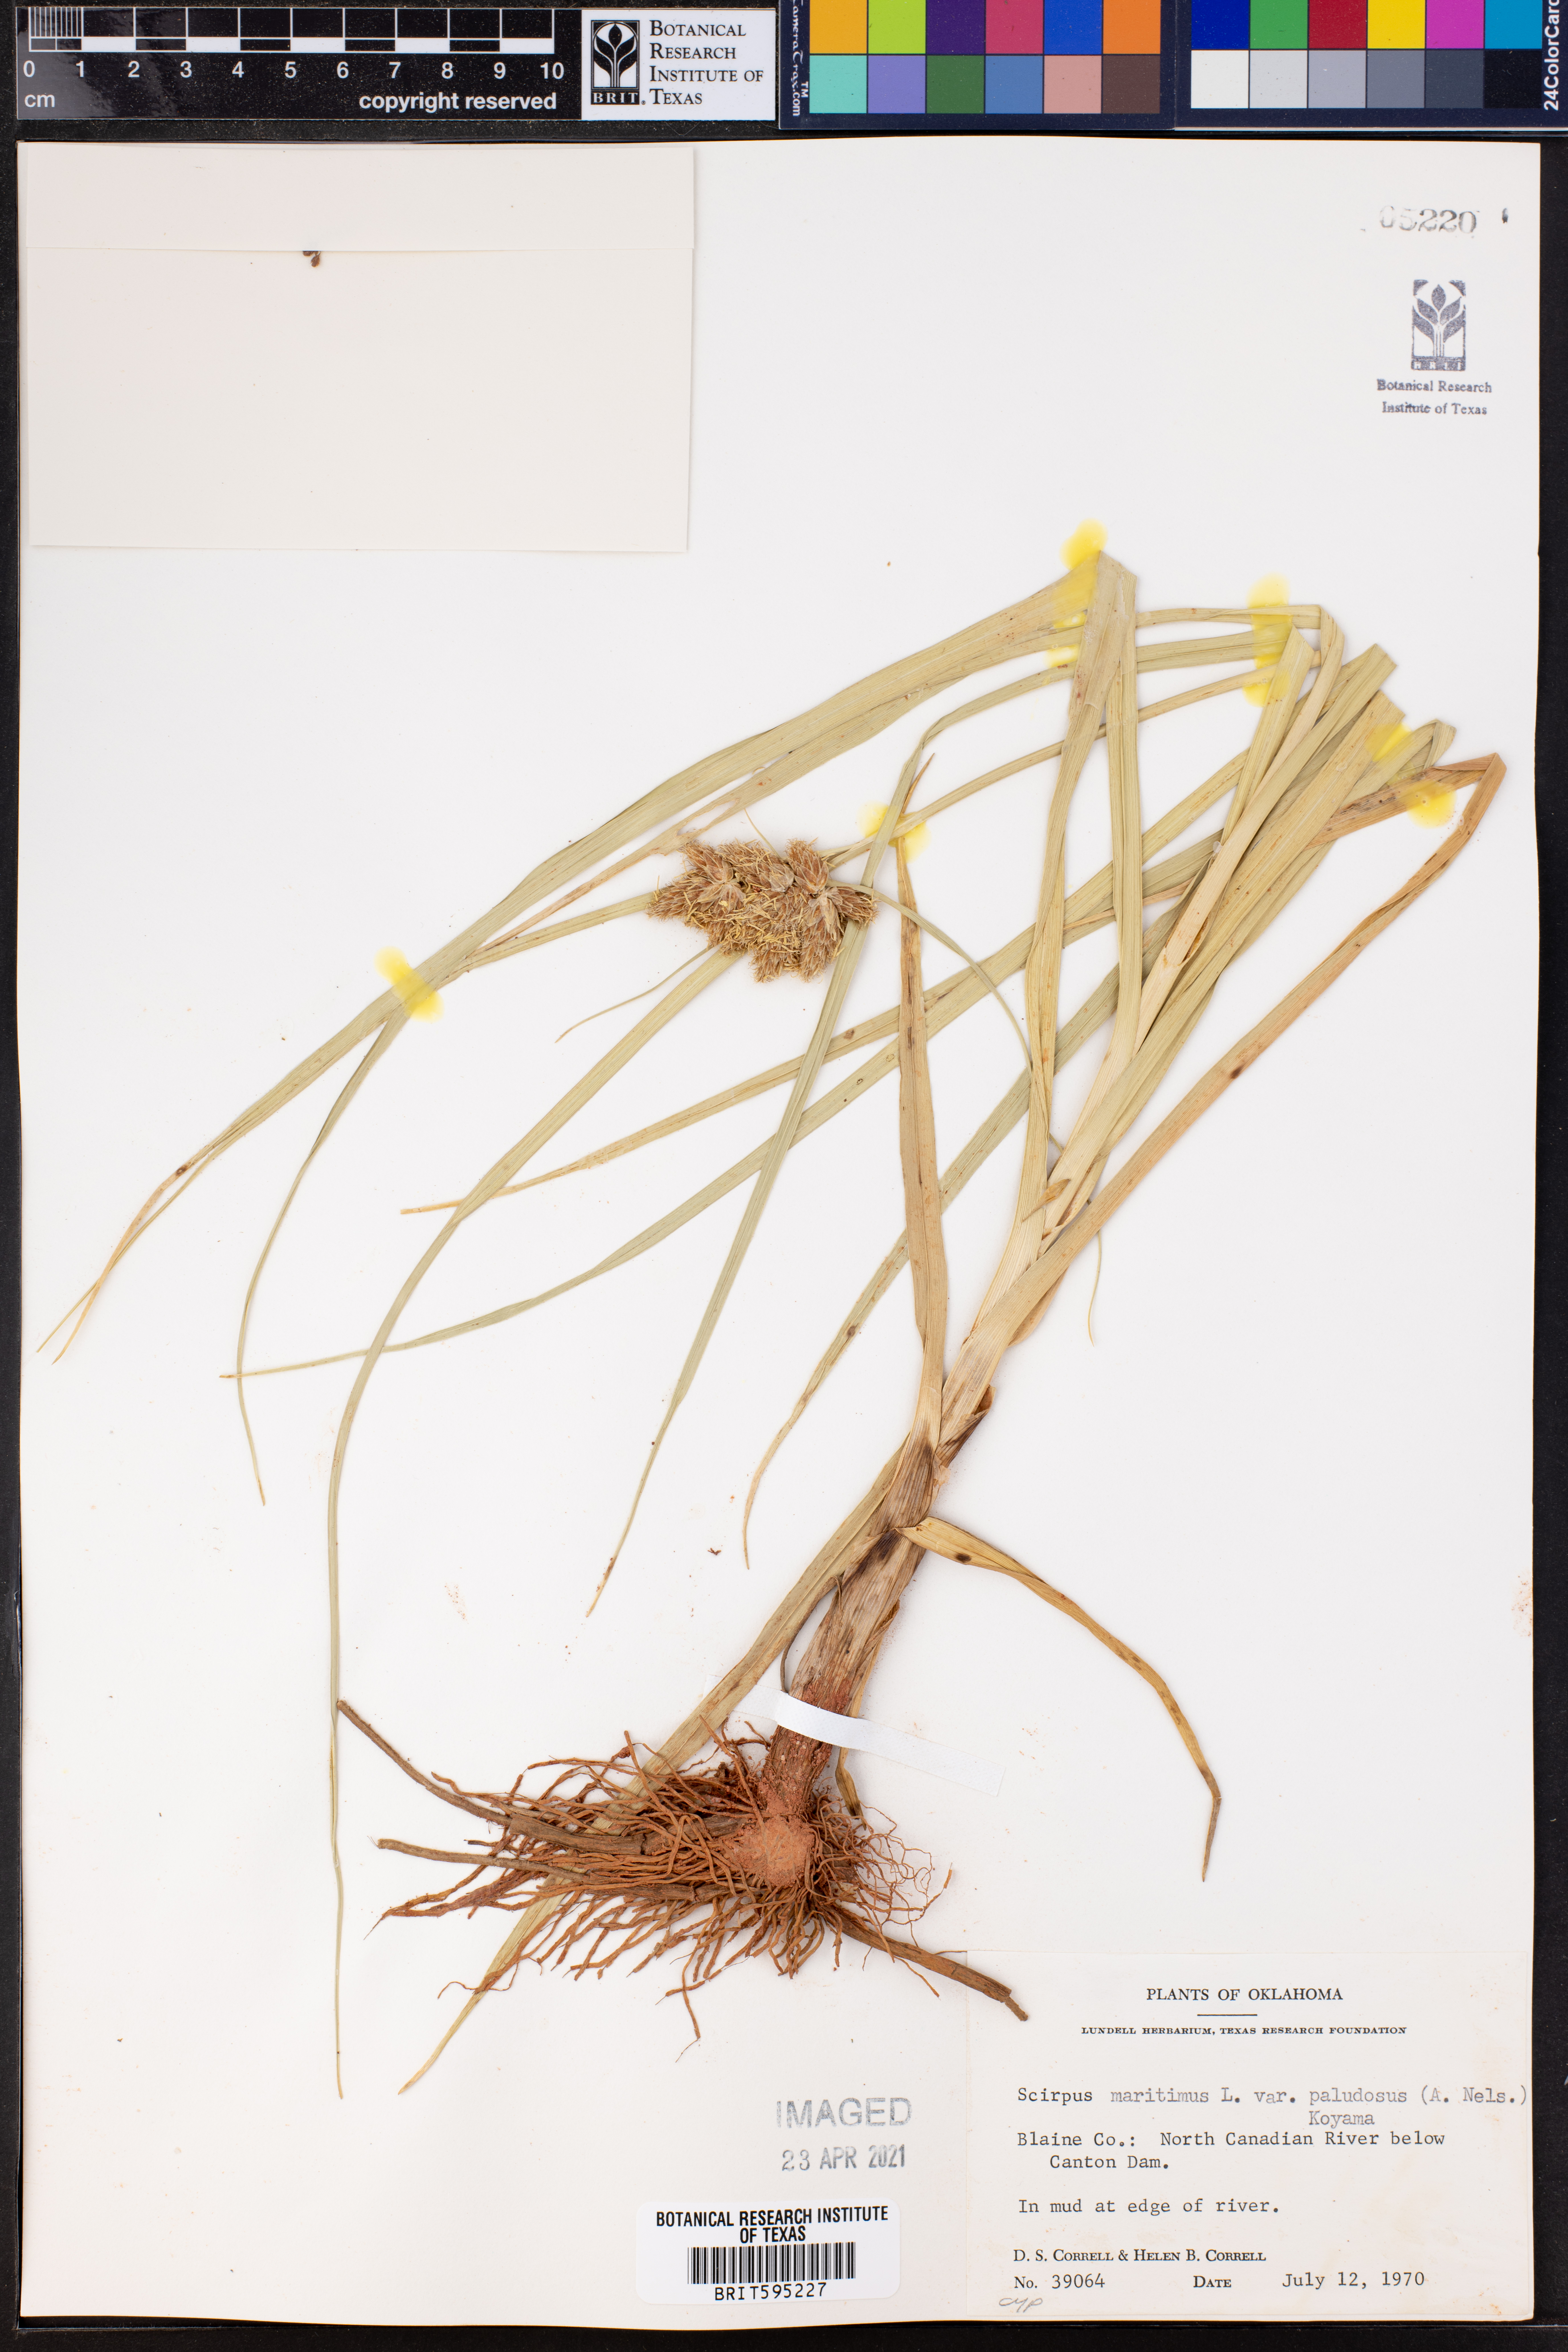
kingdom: Plantae
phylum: Tracheophyta
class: Liliopsida
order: Poales
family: Cyperaceae
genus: Bolboschoenus
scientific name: Bolboschoenus maritimus
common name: Sea club-rush
